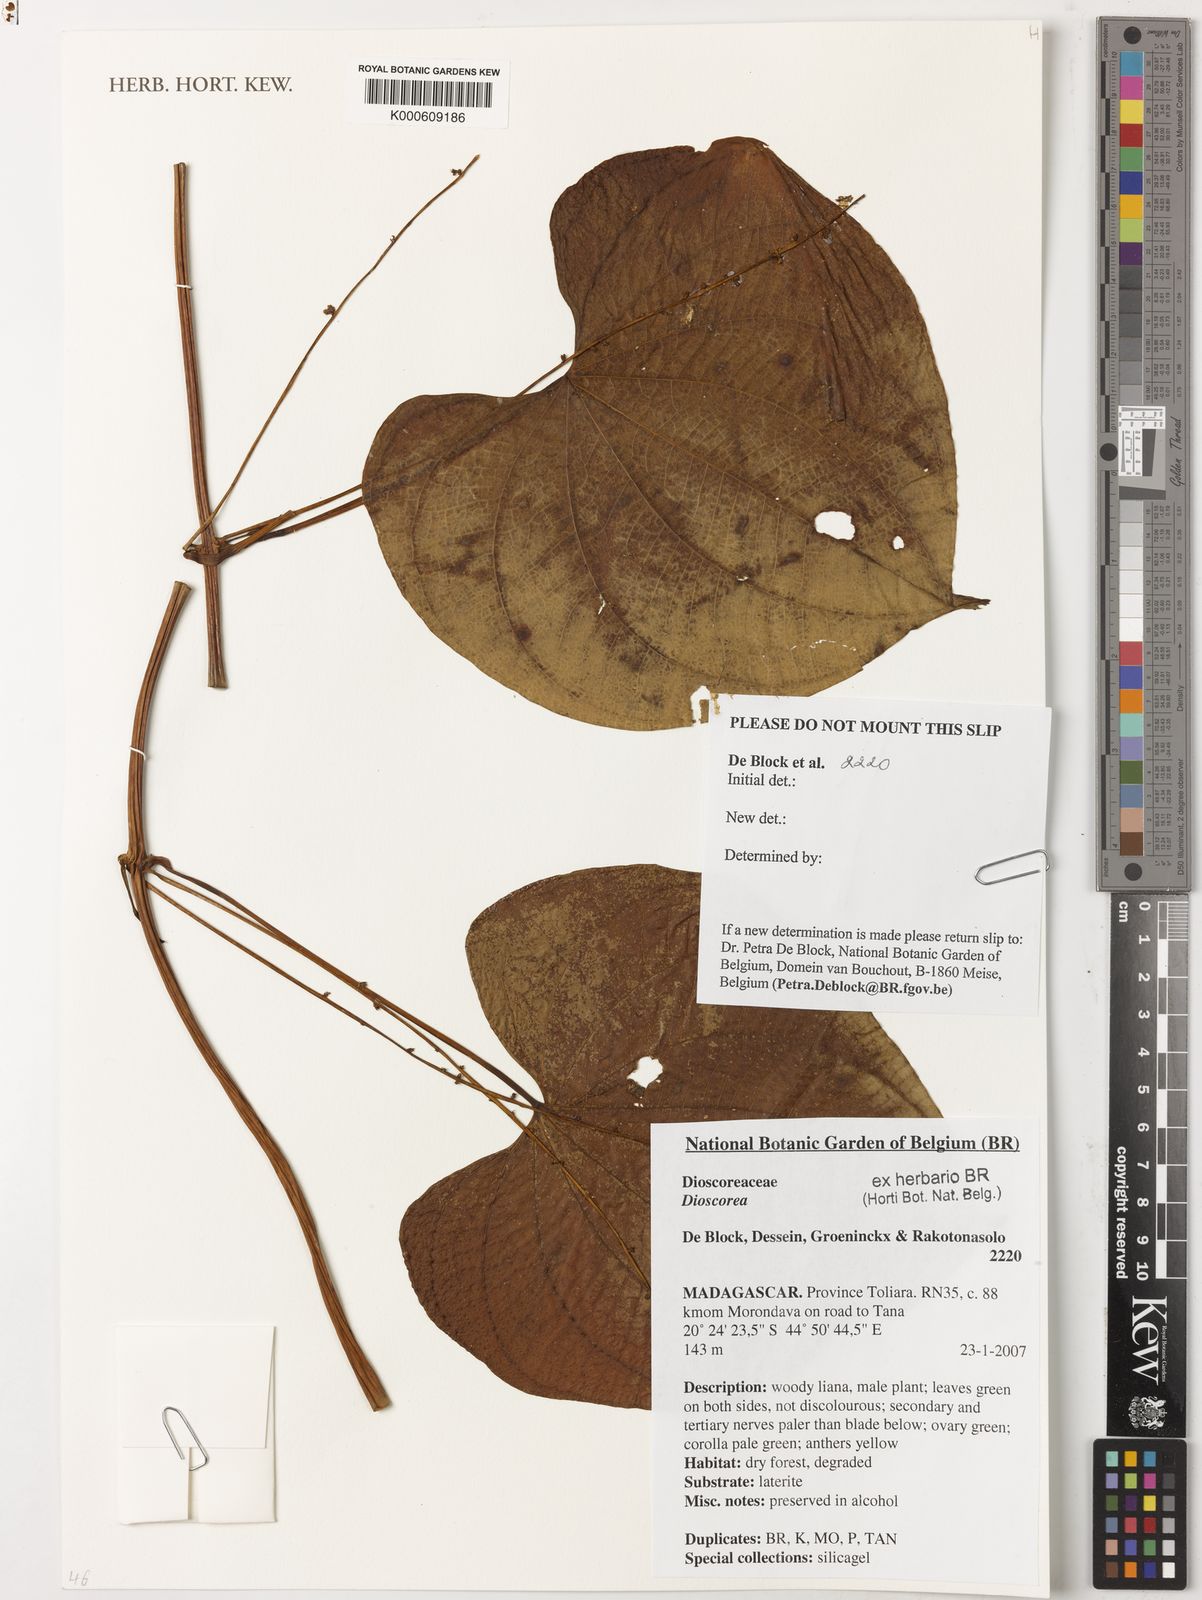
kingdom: Plantae
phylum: Tracheophyta
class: Liliopsida
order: Dioscoreales
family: Dioscoreaceae
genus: Dioscorea
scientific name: Dioscorea
